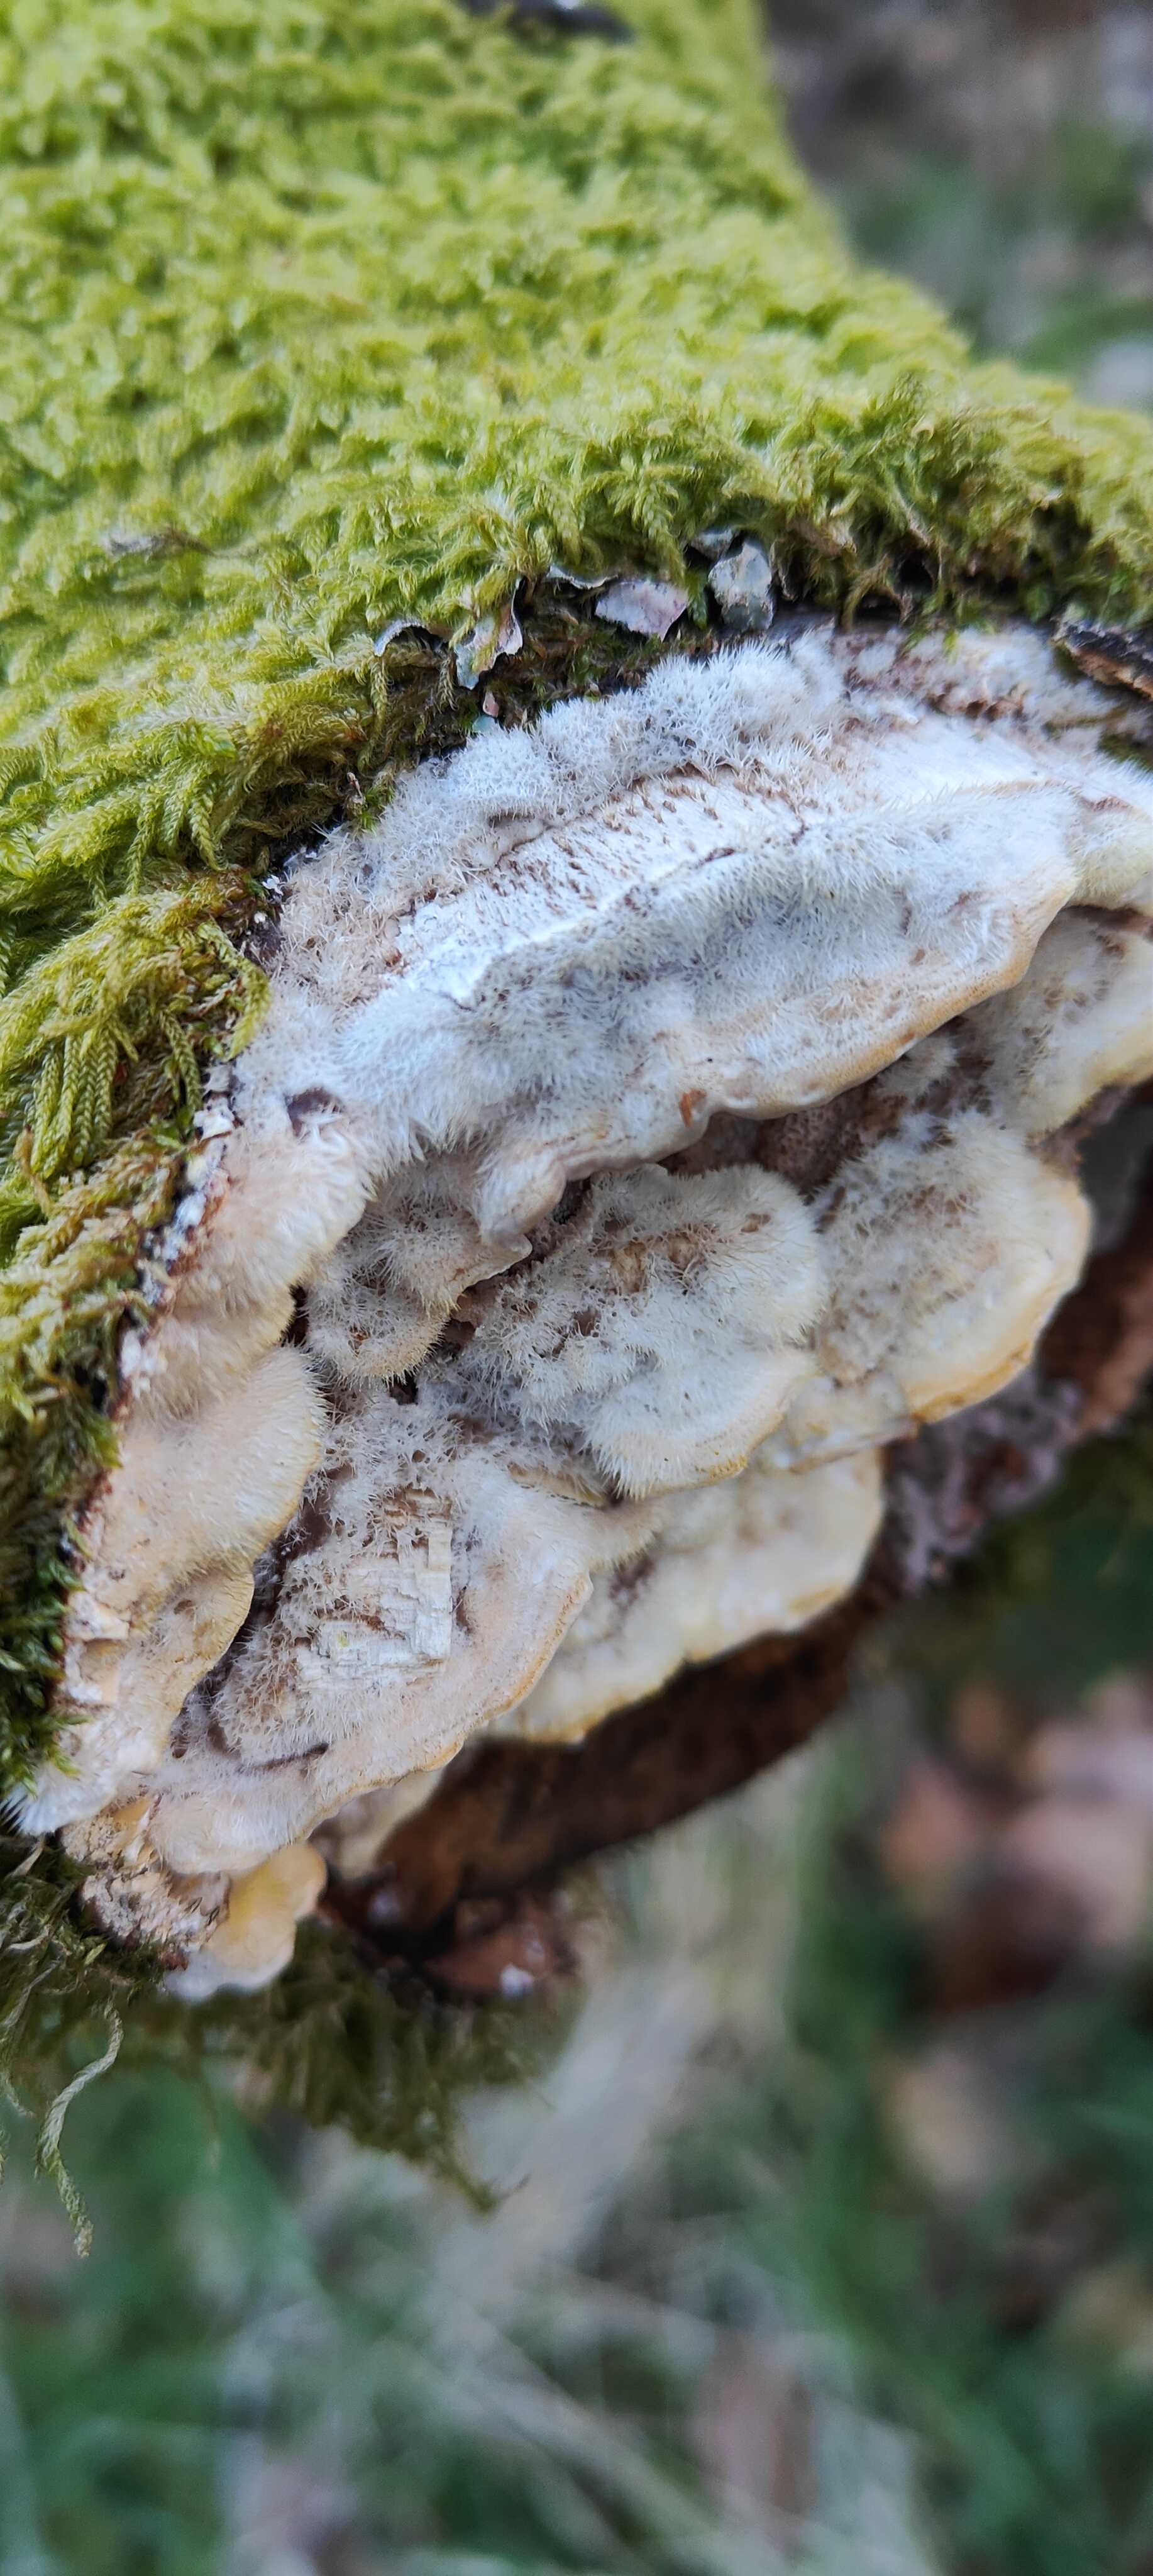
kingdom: Fungi
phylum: Basidiomycota
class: Agaricomycetes
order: Polyporales
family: Polyporaceae
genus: Trametes
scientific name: Trametes hirsuta
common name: håret læderporesvamp
